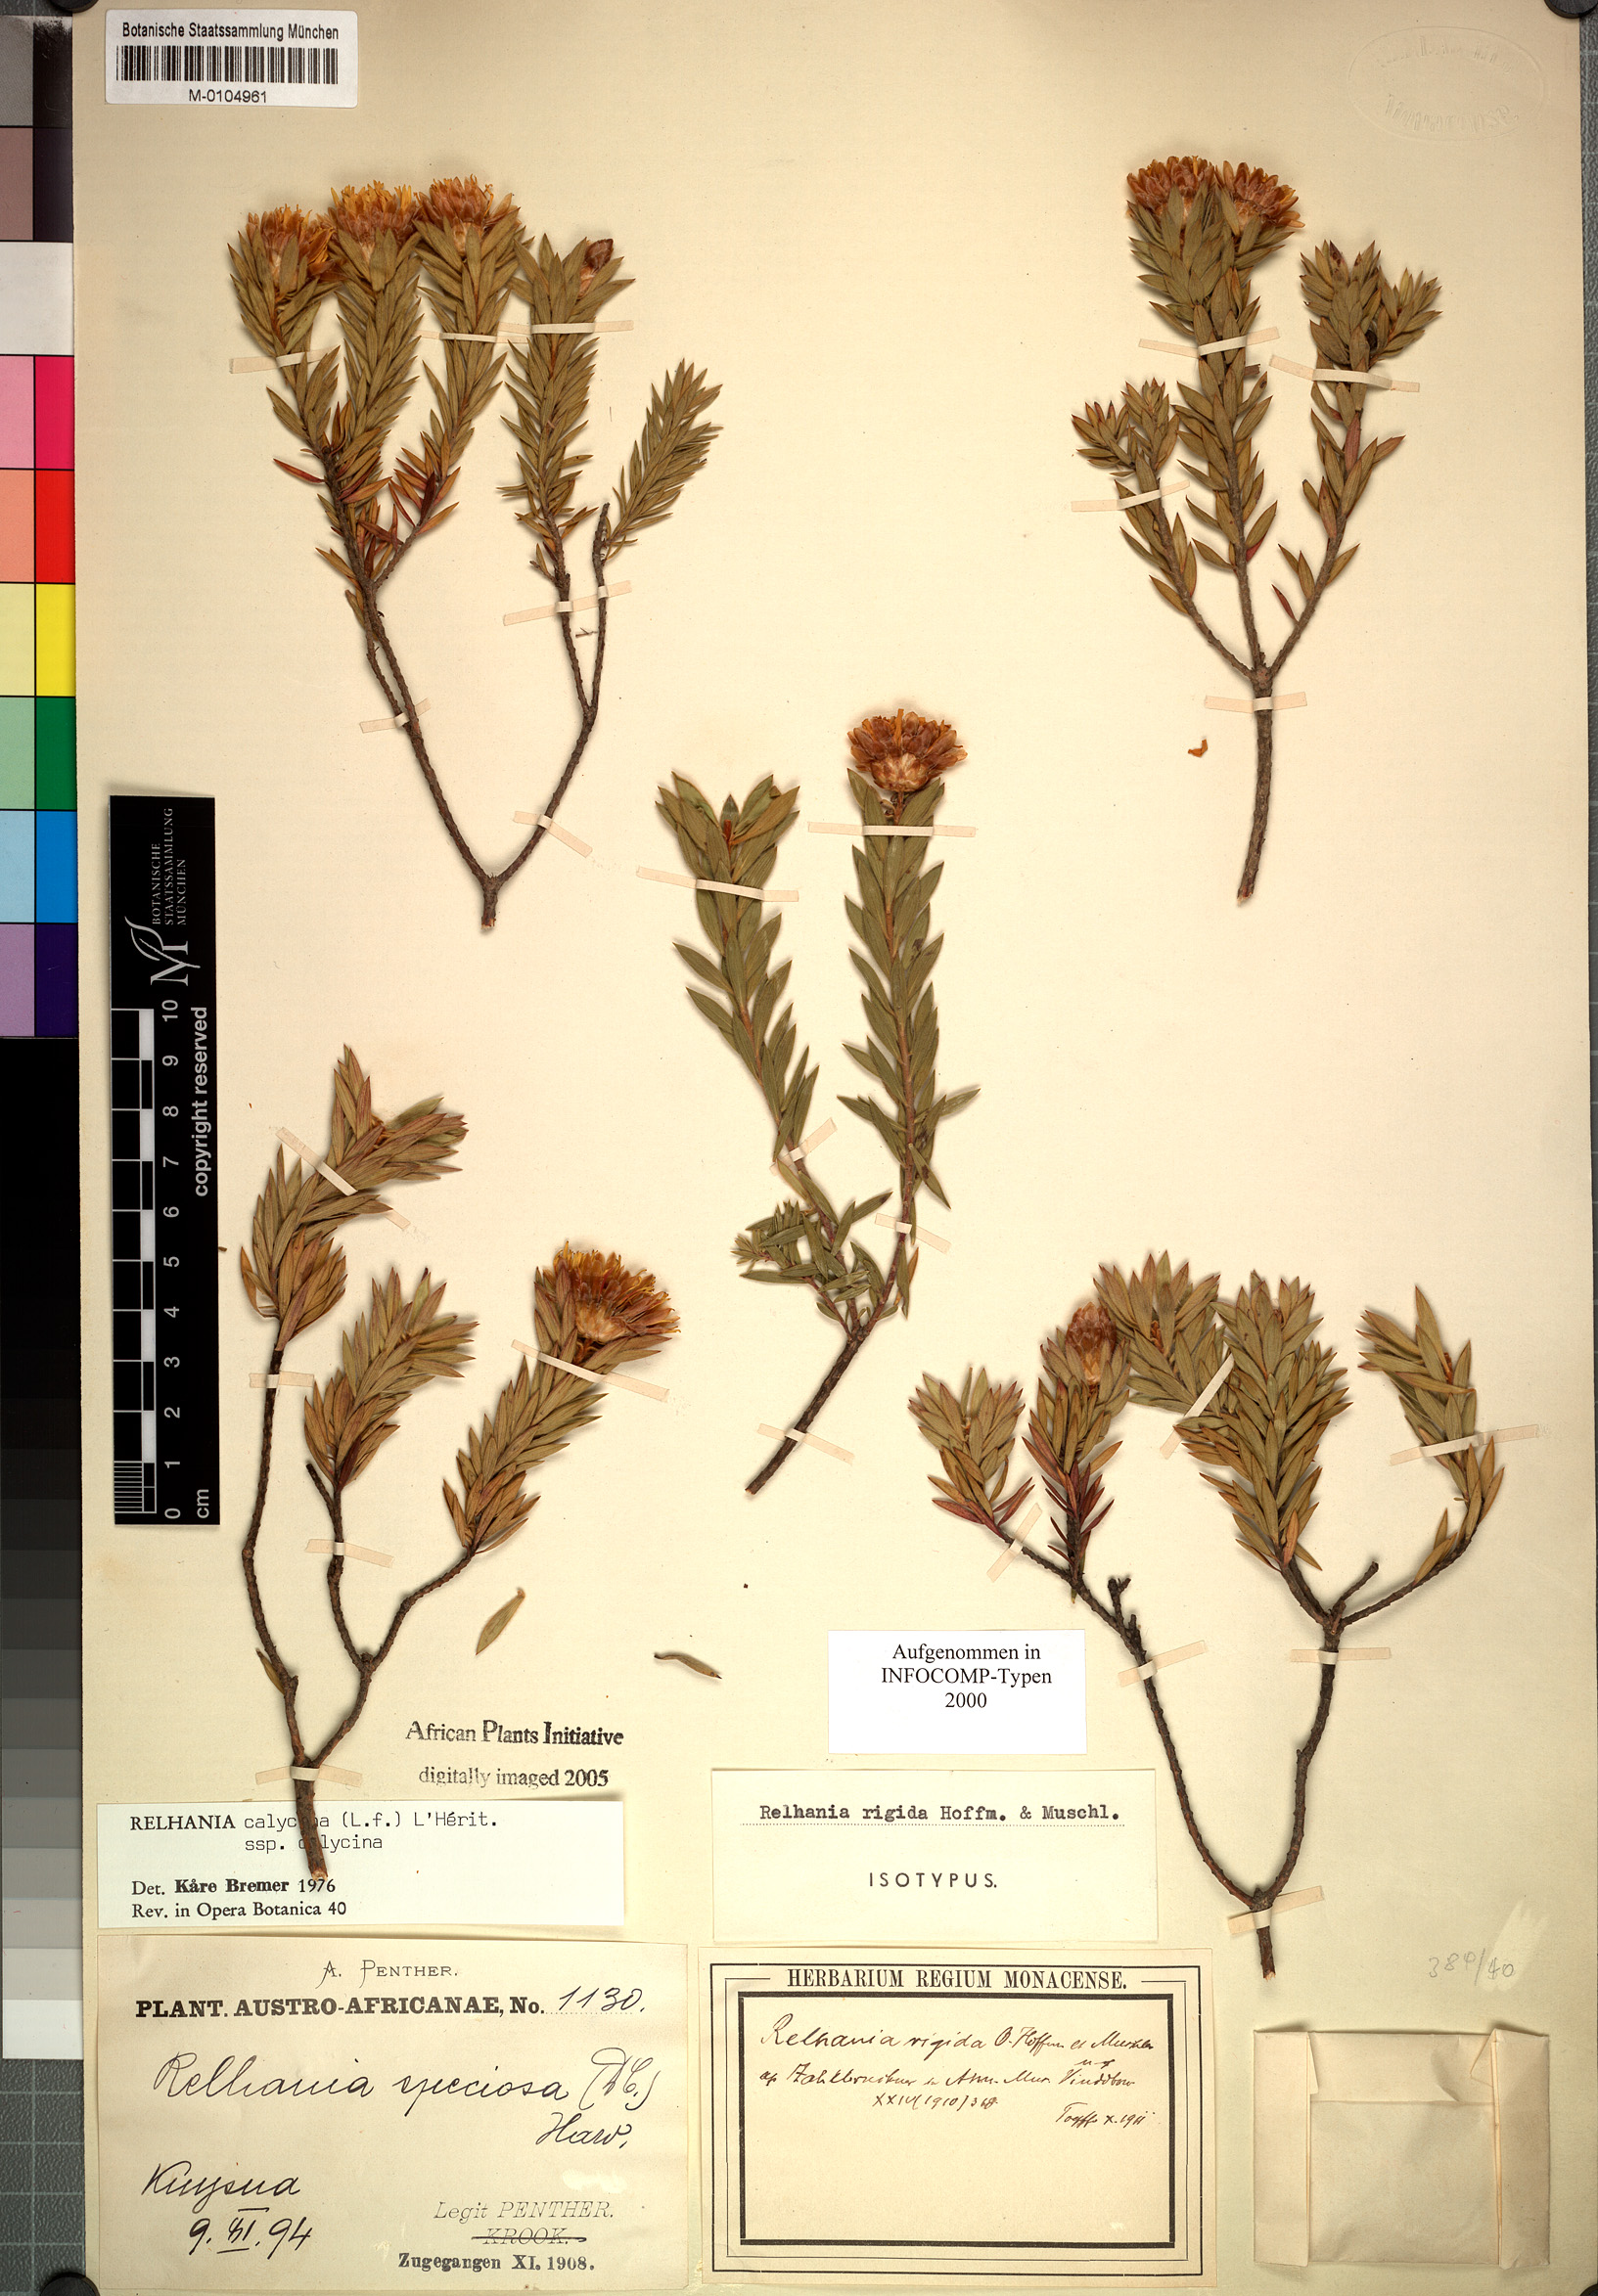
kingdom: Plantae
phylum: Tracheophyta
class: Magnoliopsida
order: Asterales
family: Asteraceae
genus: Oedera
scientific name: Oedera calycina
